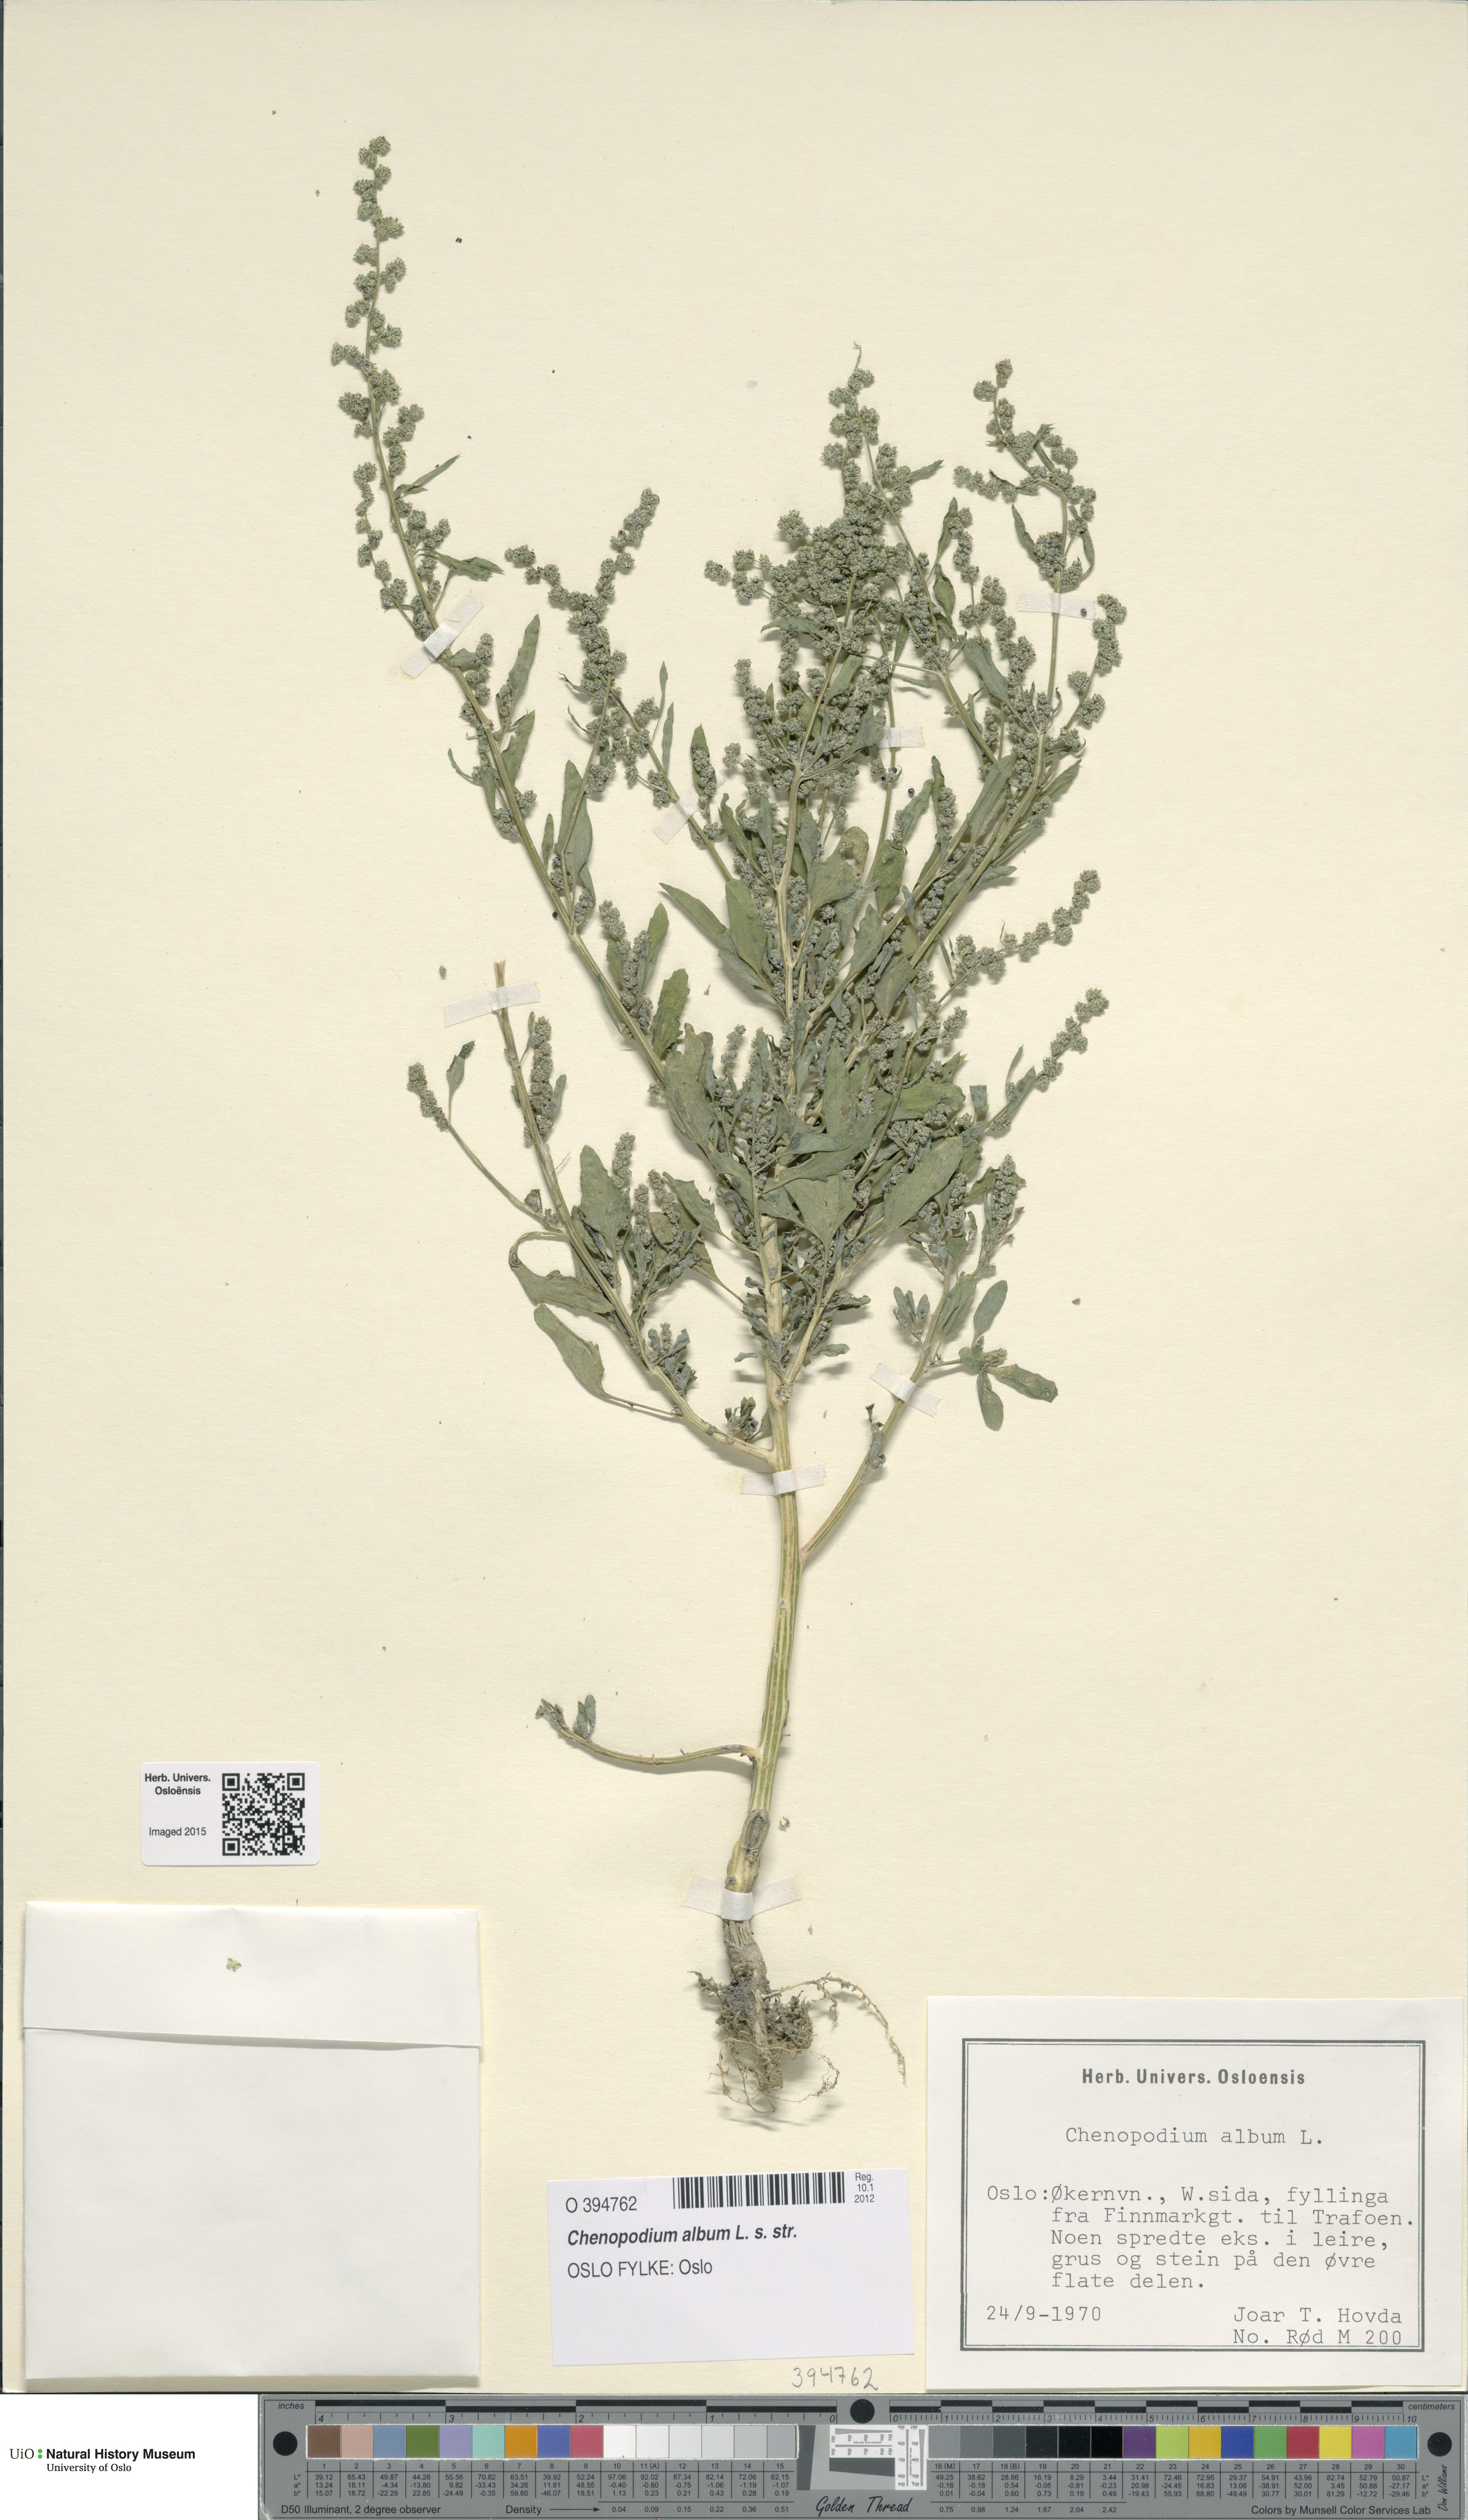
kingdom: Plantae
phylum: Tracheophyta
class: Magnoliopsida
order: Caryophyllales
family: Amaranthaceae
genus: Chenopodium
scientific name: Chenopodium album
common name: Fat-hen
